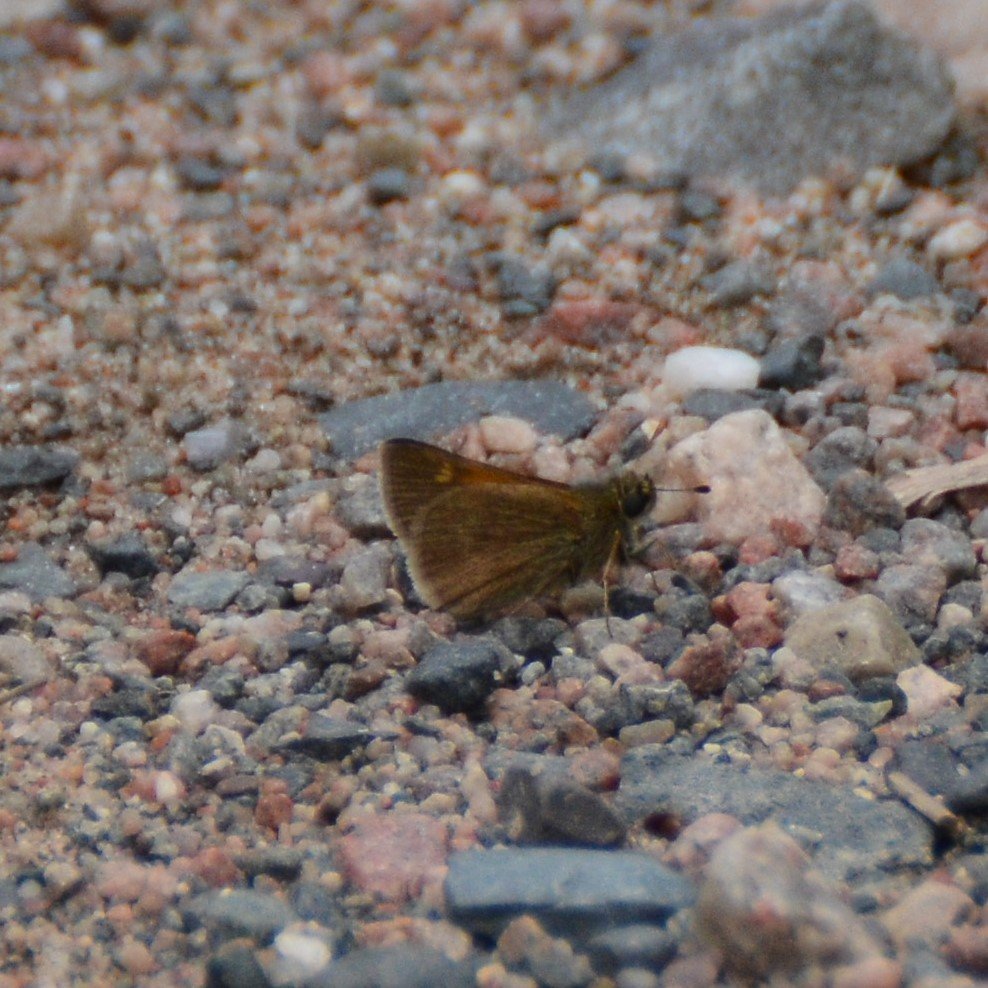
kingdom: Animalia
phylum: Arthropoda
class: Insecta
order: Lepidoptera
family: Hesperiidae
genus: Polites
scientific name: Polites themistocles
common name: Tawny-edged Skipper
